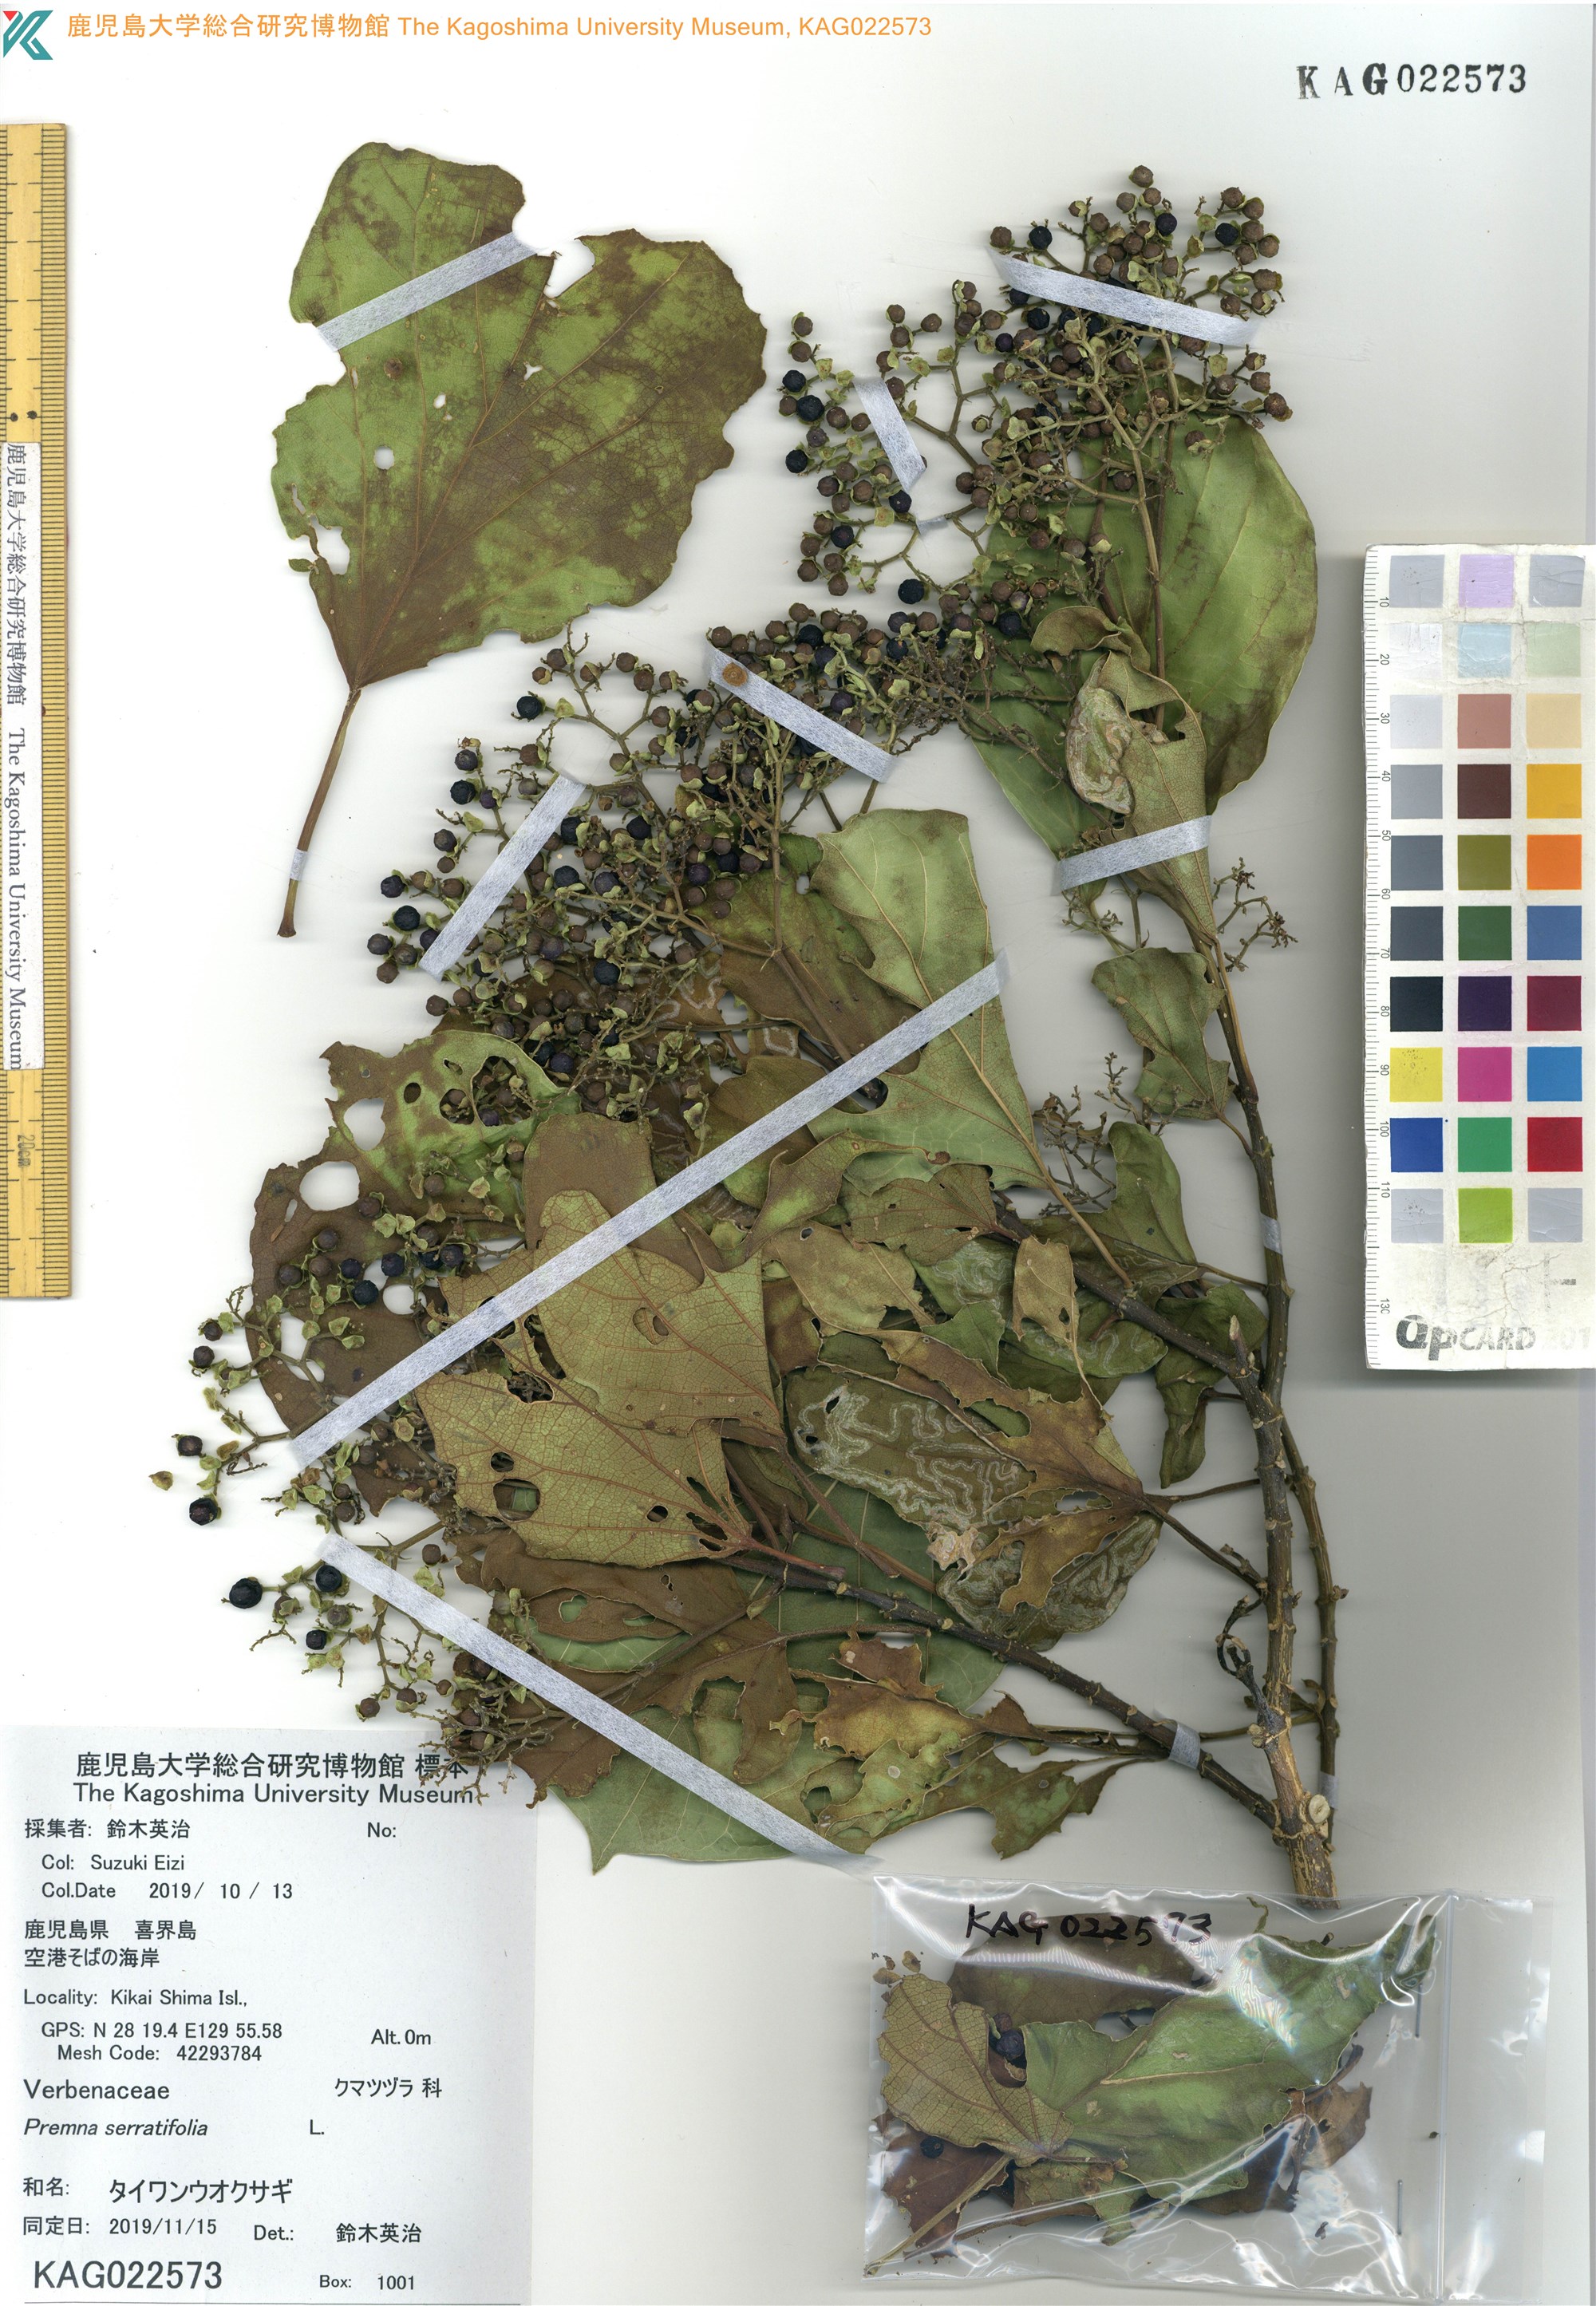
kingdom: Plantae
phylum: Tracheophyta
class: Magnoliopsida
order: Lamiales
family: Lamiaceae
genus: Premna
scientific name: Premna serratifolia
